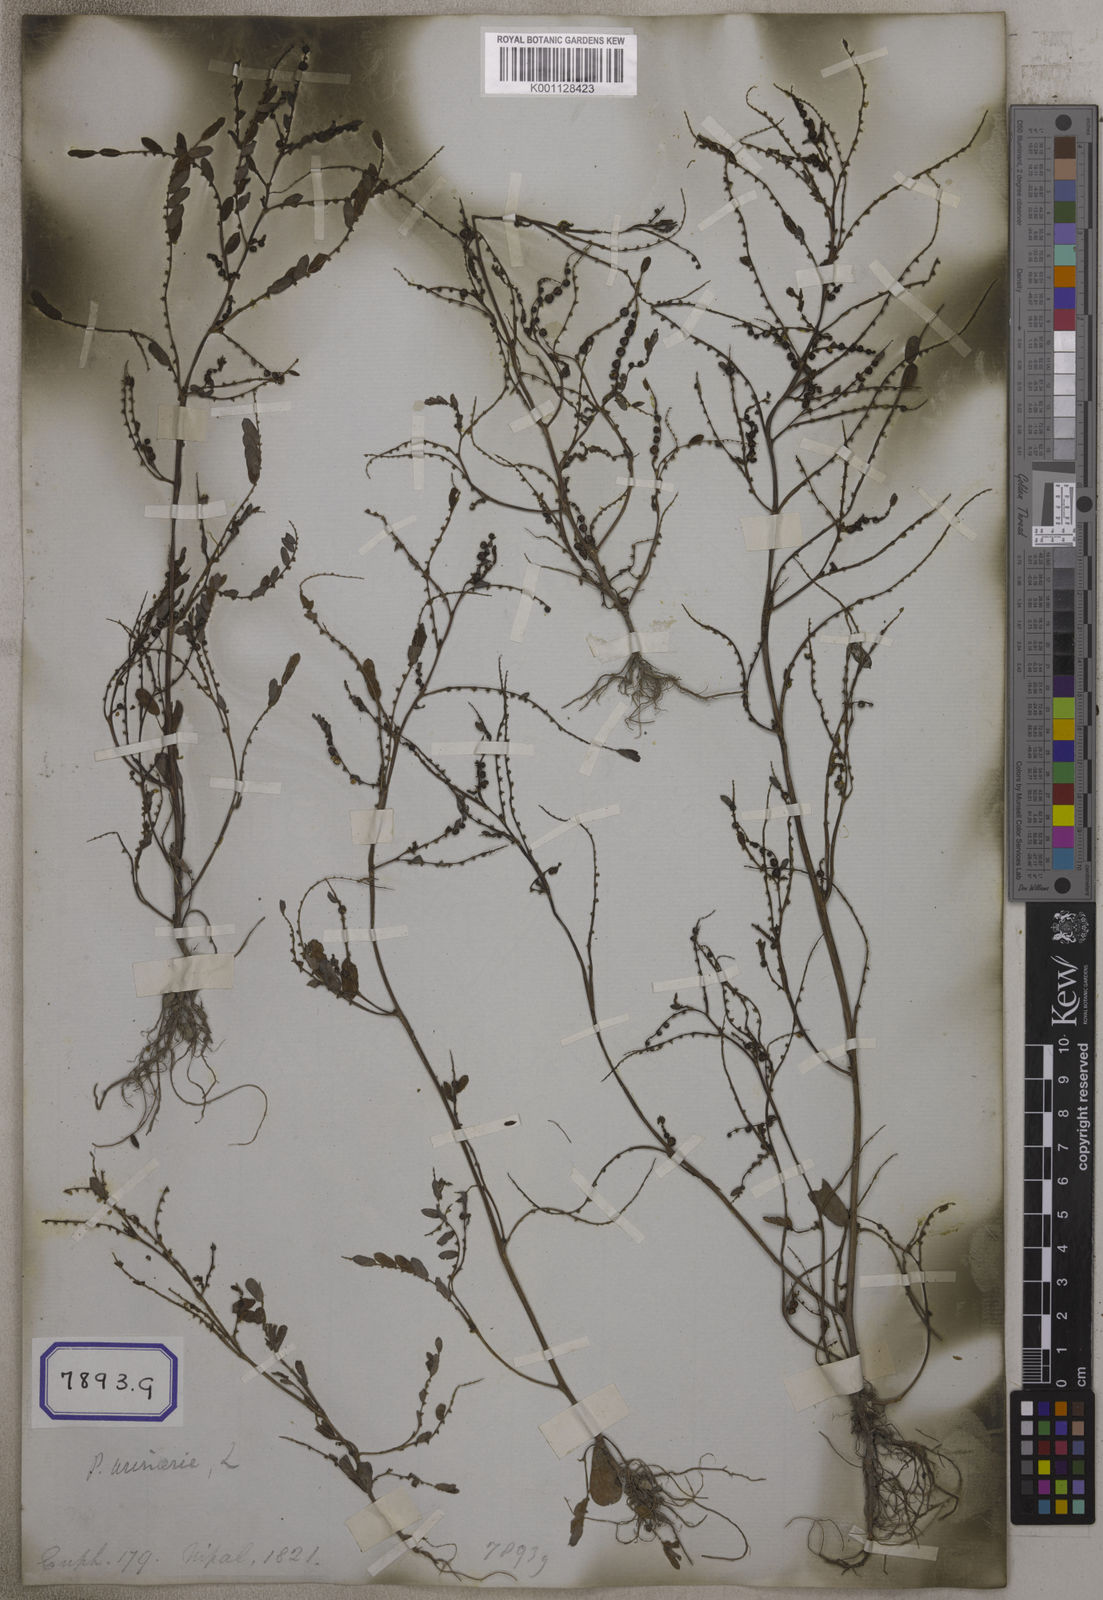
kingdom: Plantae
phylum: Tracheophyta
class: Magnoliopsida
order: Malpighiales
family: Euphorbiaceae
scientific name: Euphorbiaceae
